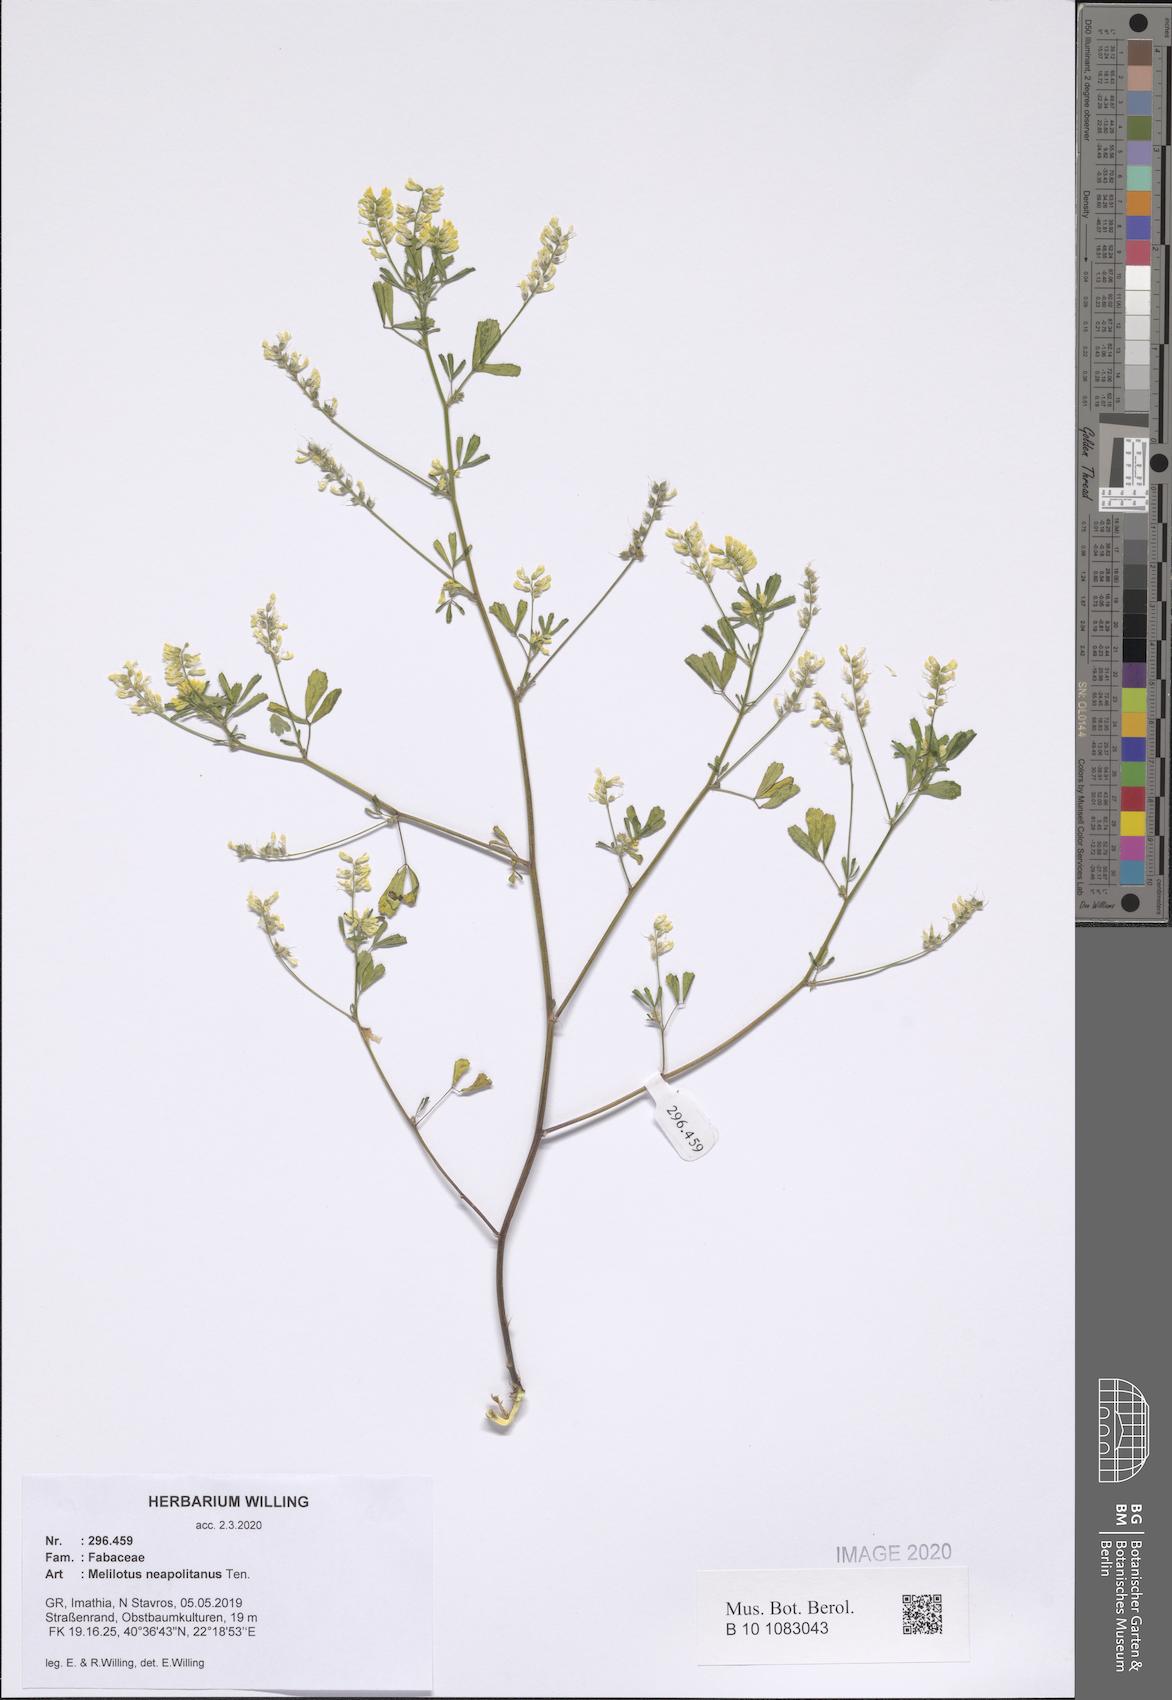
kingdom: Plantae
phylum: Tracheophyta
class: Magnoliopsida
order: Fabales
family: Fabaceae
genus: Melilotus
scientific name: Melilotus neapolitanus
